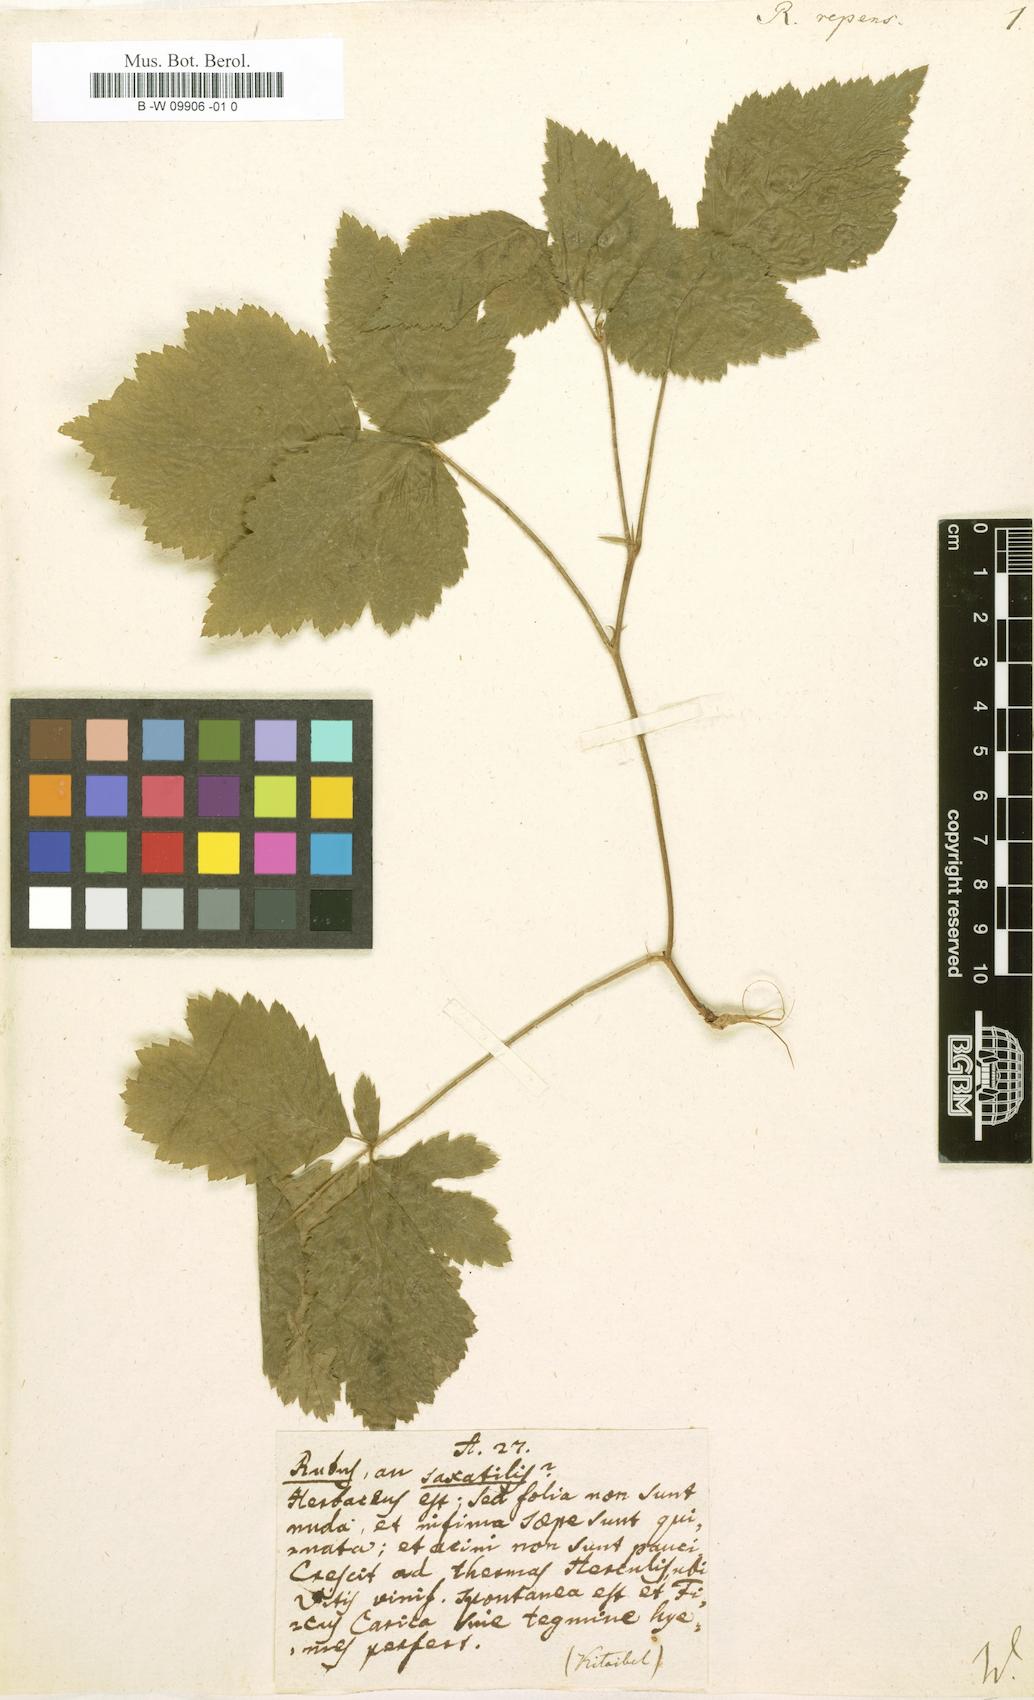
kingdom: Plantae
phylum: Tracheophyta
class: Magnoliopsida
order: Rosales
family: Rosaceae
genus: Dalibarda
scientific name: Dalibarda repens
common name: Dewdrop
